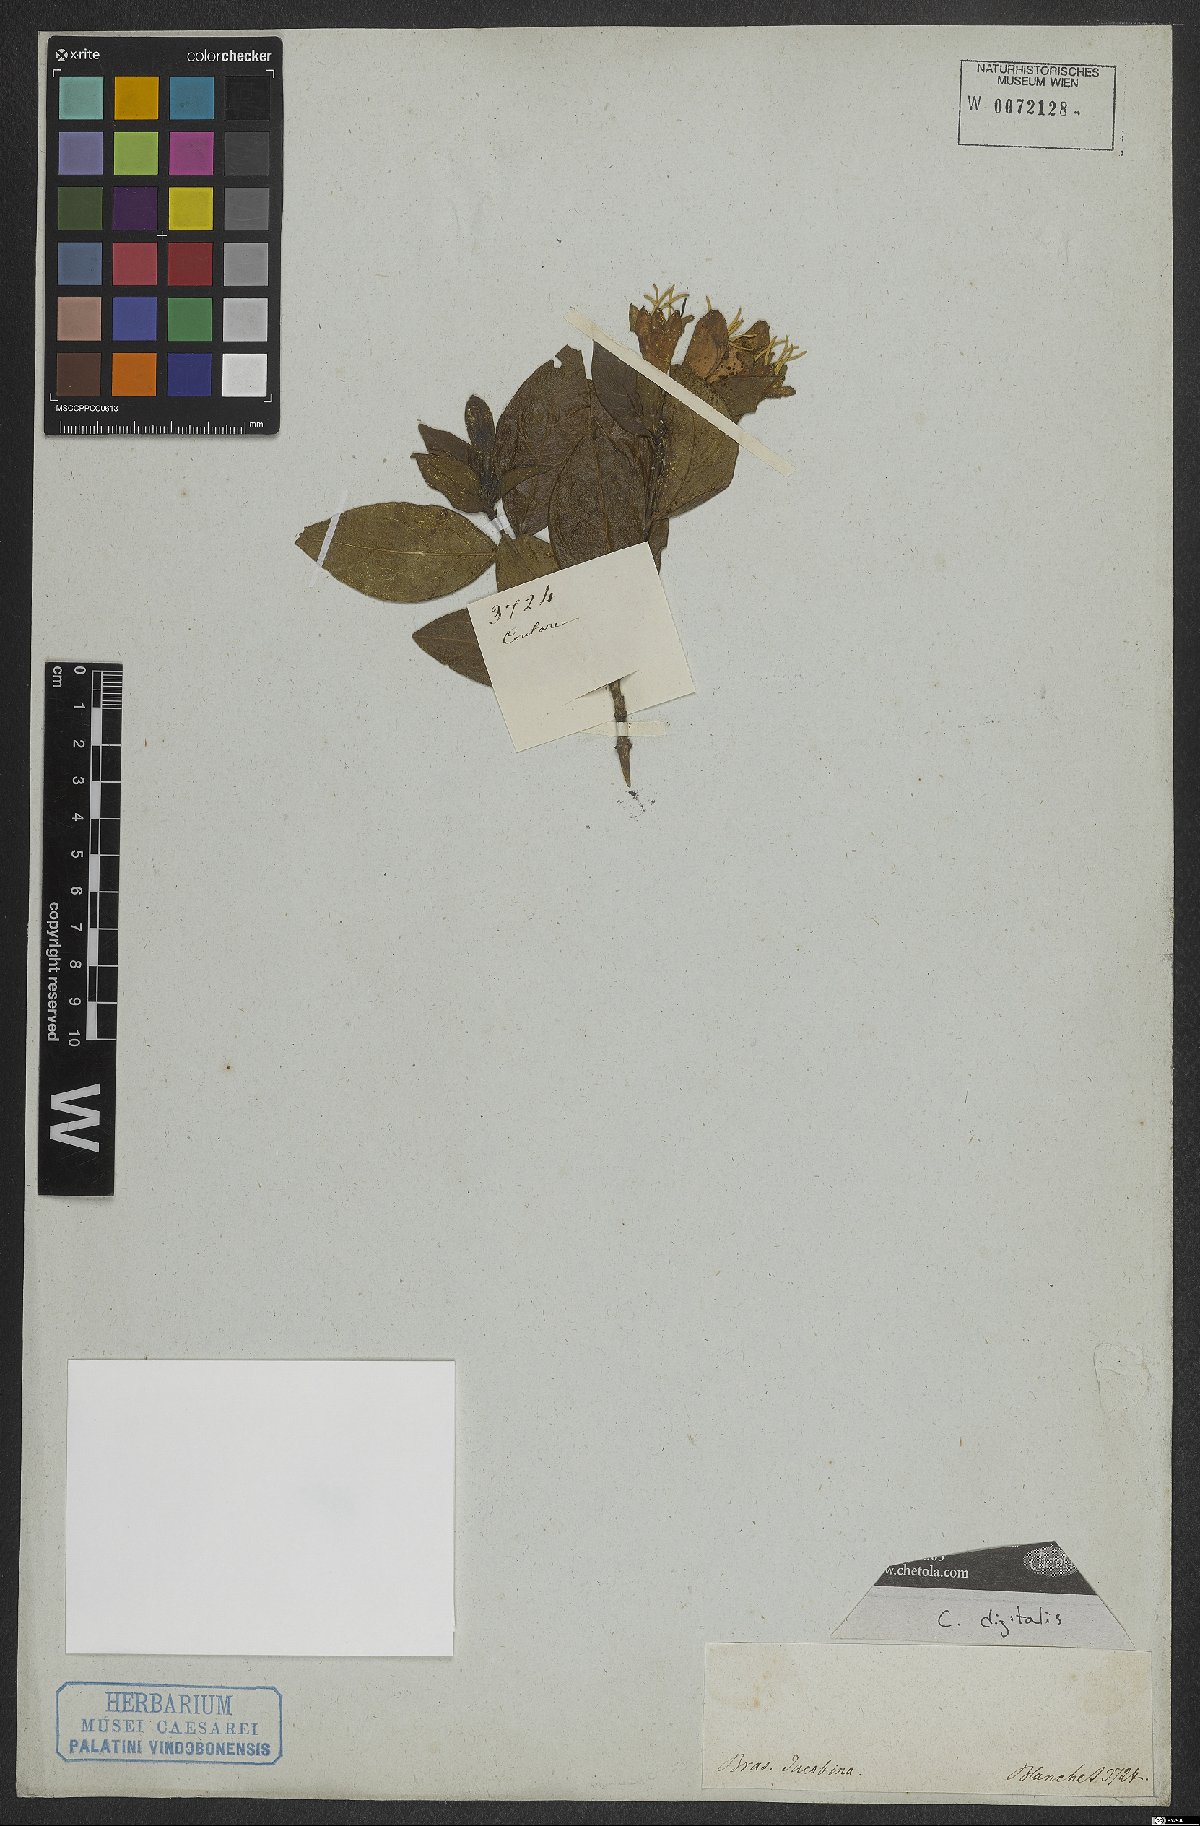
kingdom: Plantae
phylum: Tracheophyta
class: Magnoliopsida
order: Gentianales
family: Rubiaceae
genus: Coutarea
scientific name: Coutarea
